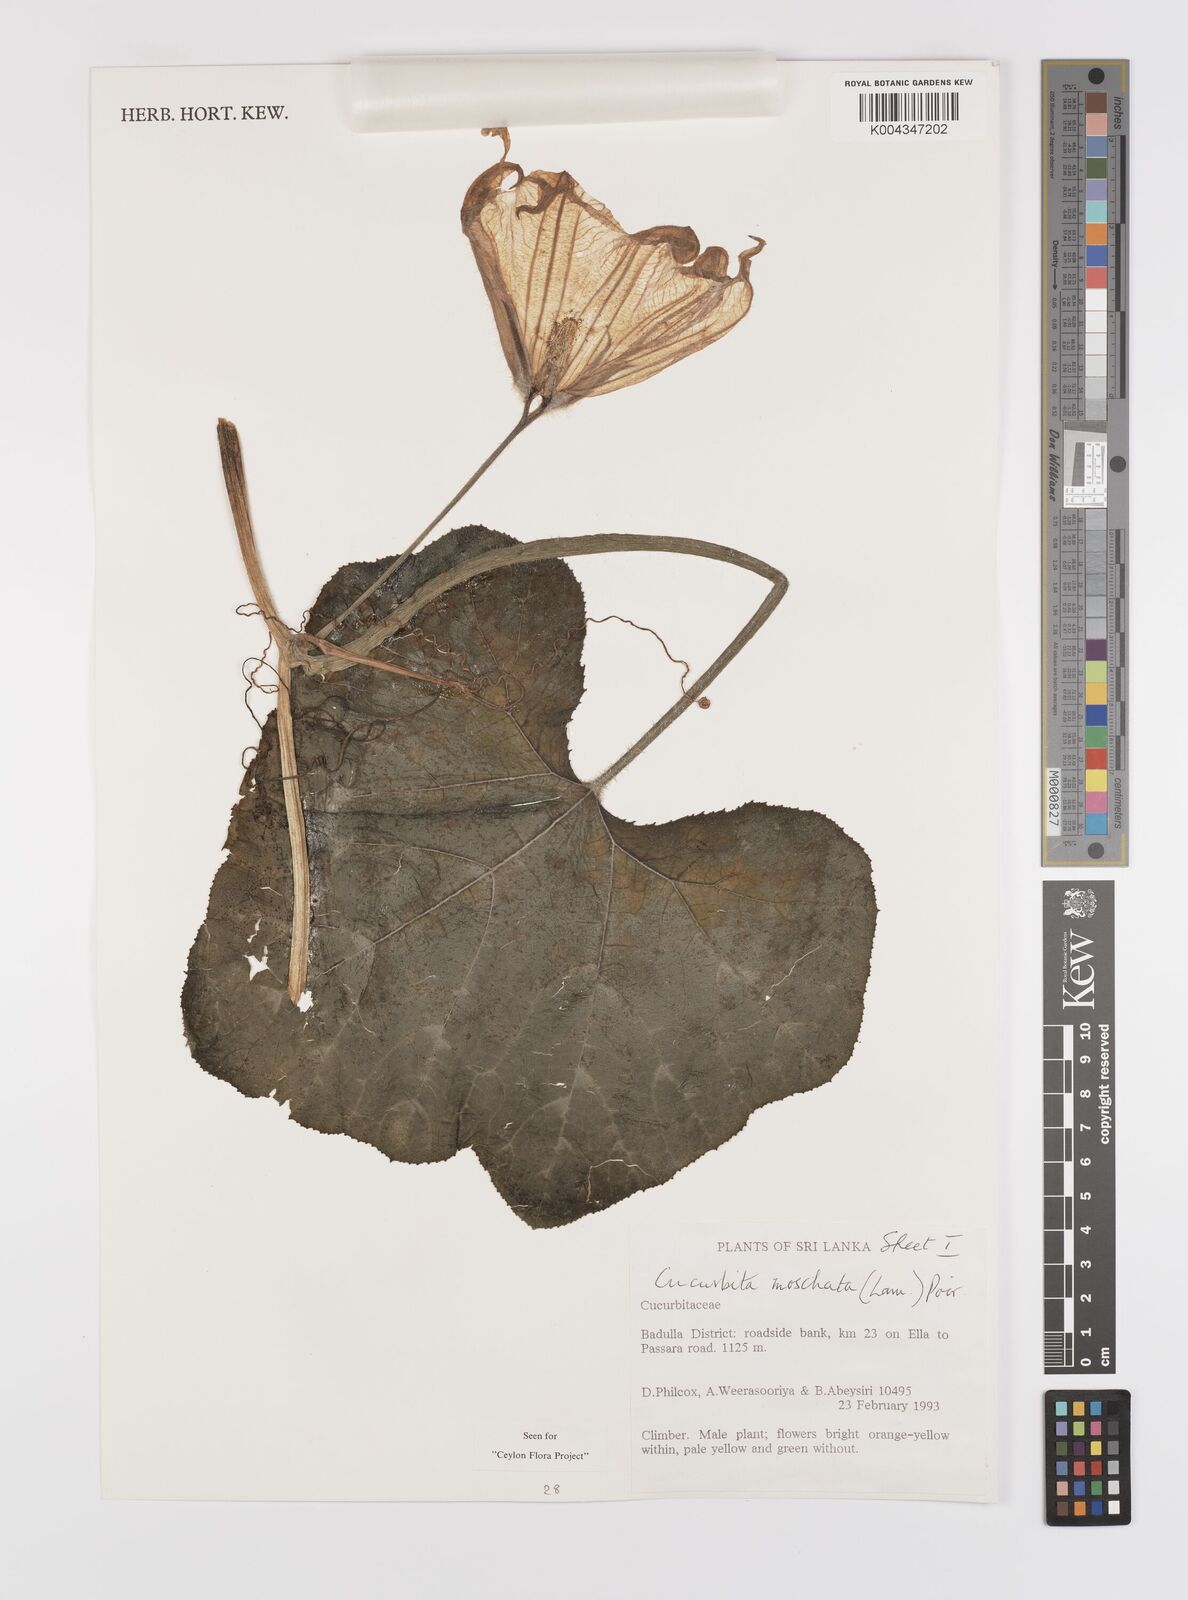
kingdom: Plantae
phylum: Tracheophyta
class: Magnoliopsida
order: Cucurbitales
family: Cucurbitaceae
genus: Cucurbita
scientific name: Cucurbita moschata
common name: Squash / pumpkin
